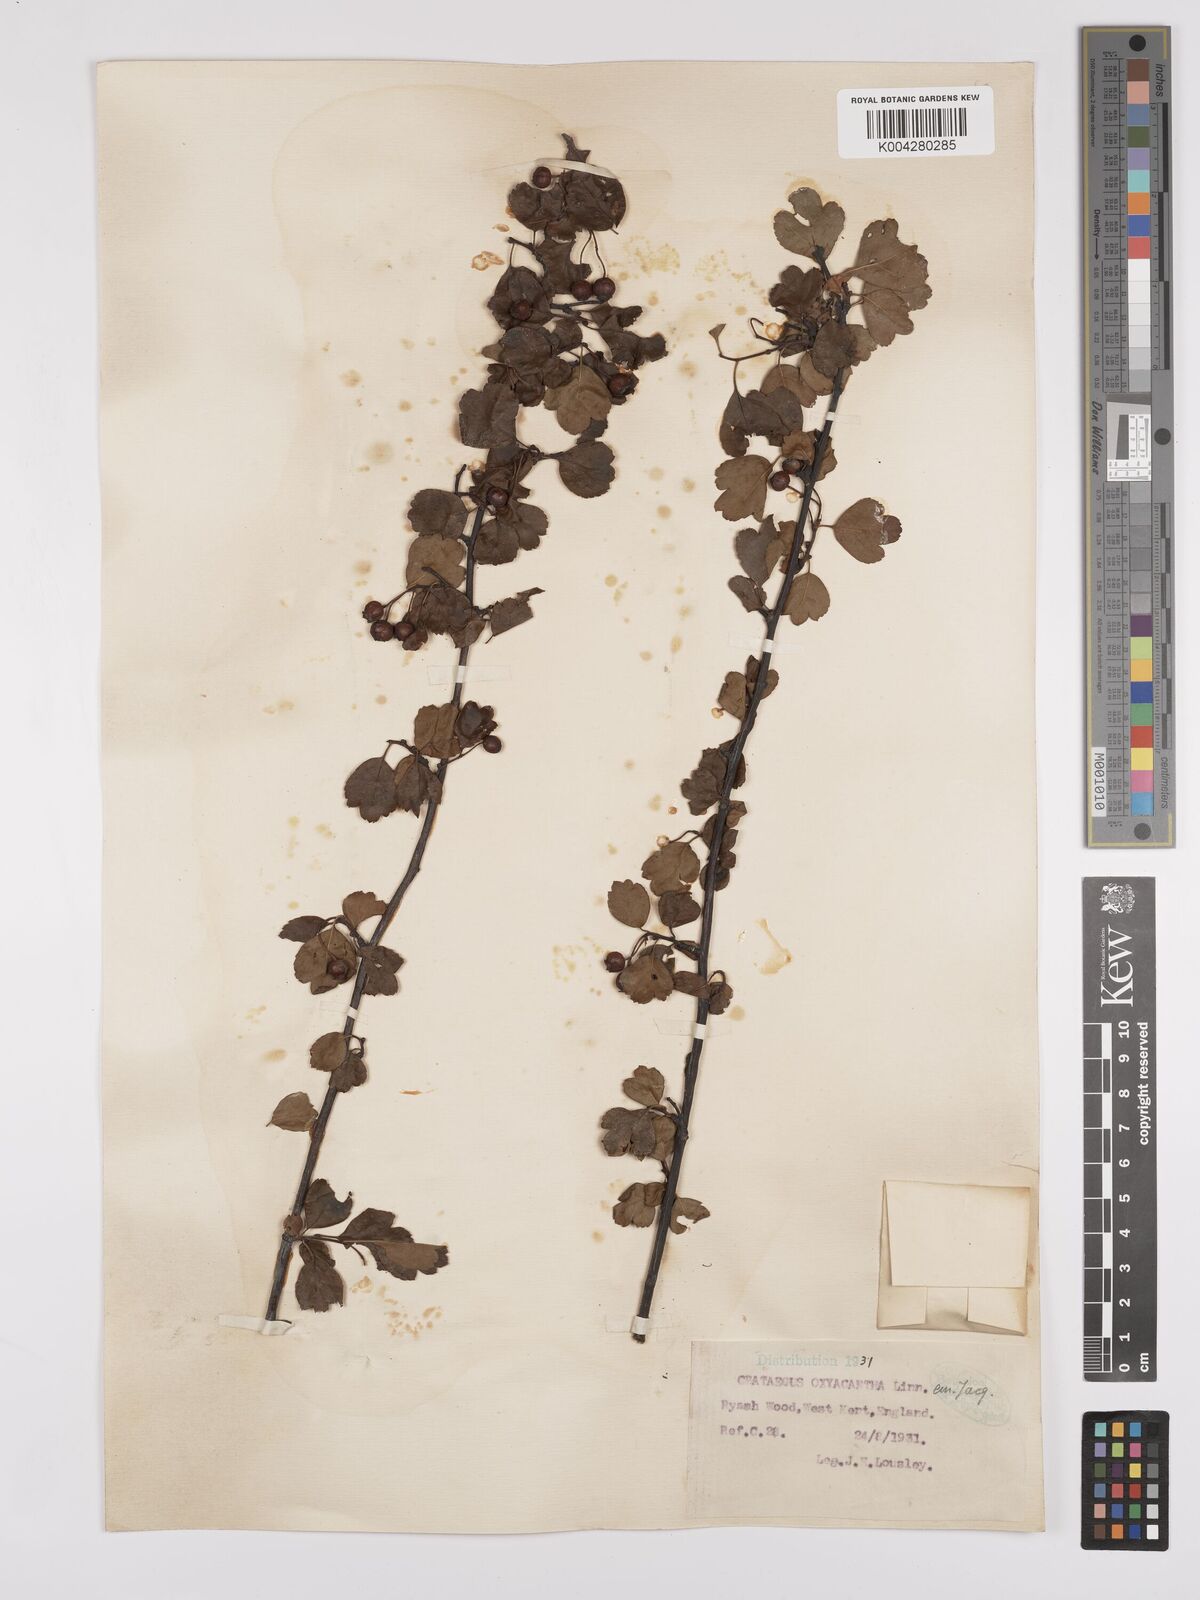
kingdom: Plantae
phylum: Tracheophyta
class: Magnoliopsida
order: Rosales
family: Rosaceae
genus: Crataegus
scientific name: Crataegus laevigata
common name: Midland hawthorn
